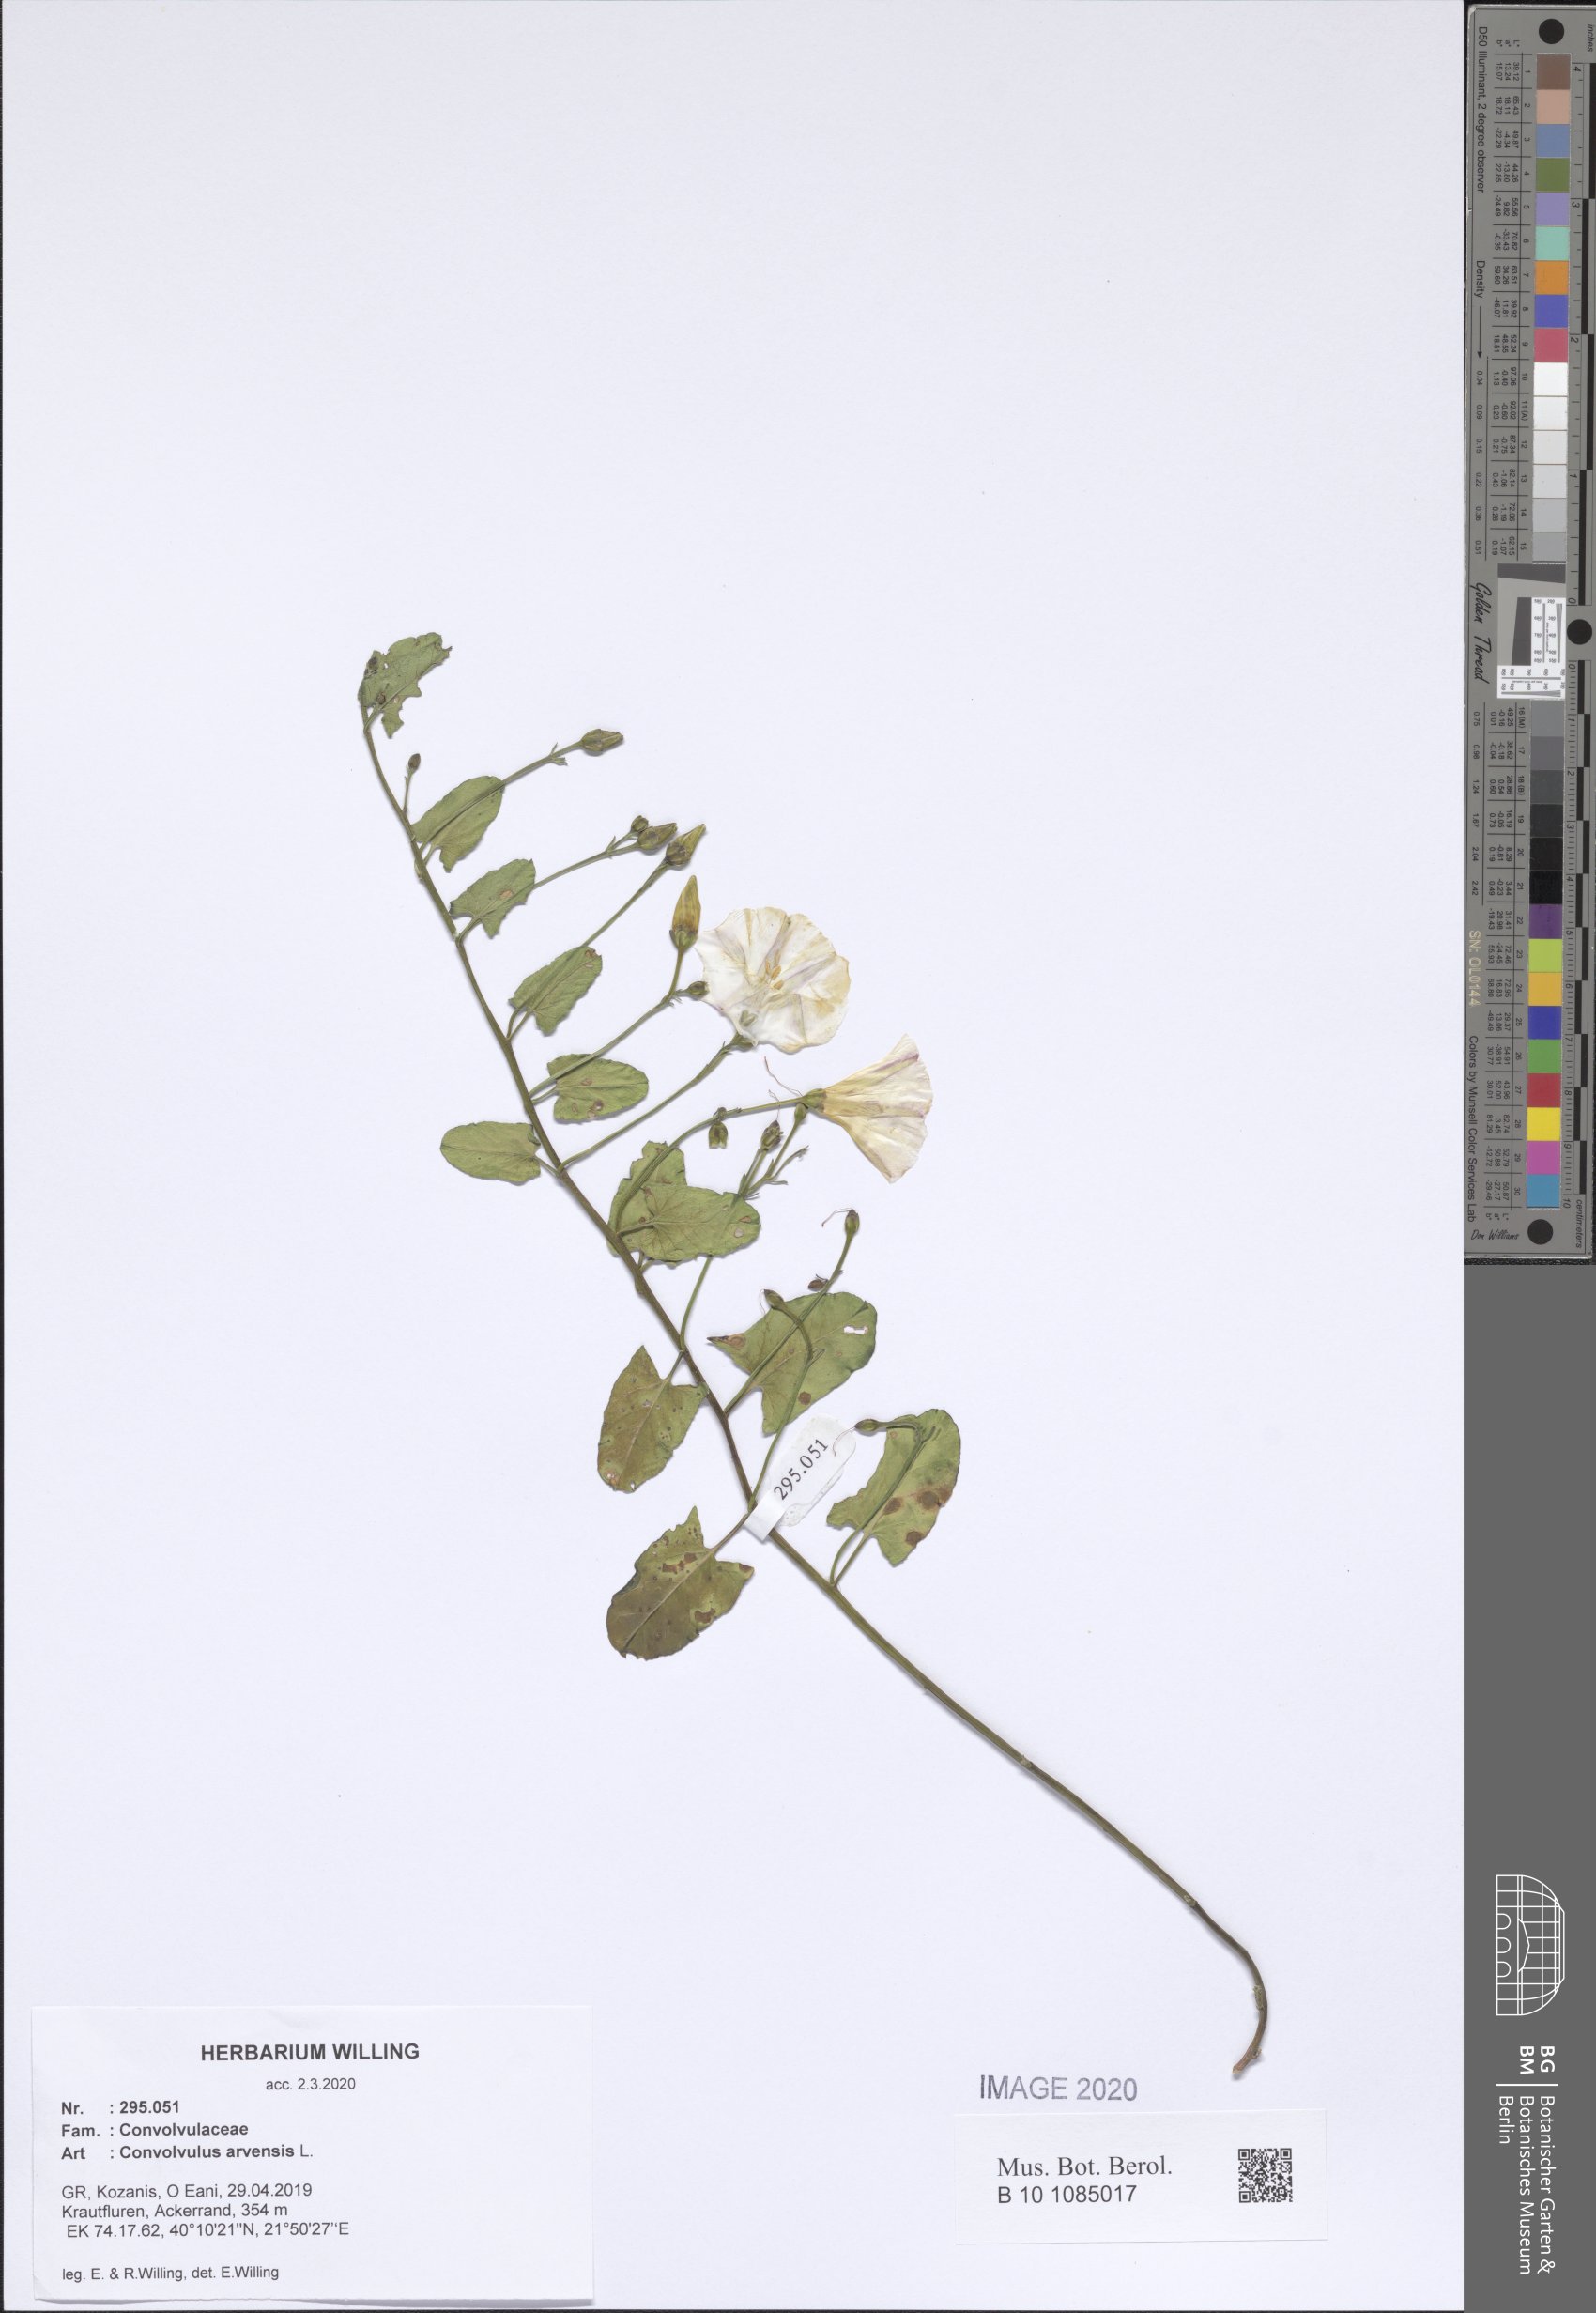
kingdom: Plantae
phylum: Tracheophyta
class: Magnoliopsida
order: Solanales
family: Convolvulaceae
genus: Convolvulus
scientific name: Convolvulus arvensis
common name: Field bindweed
